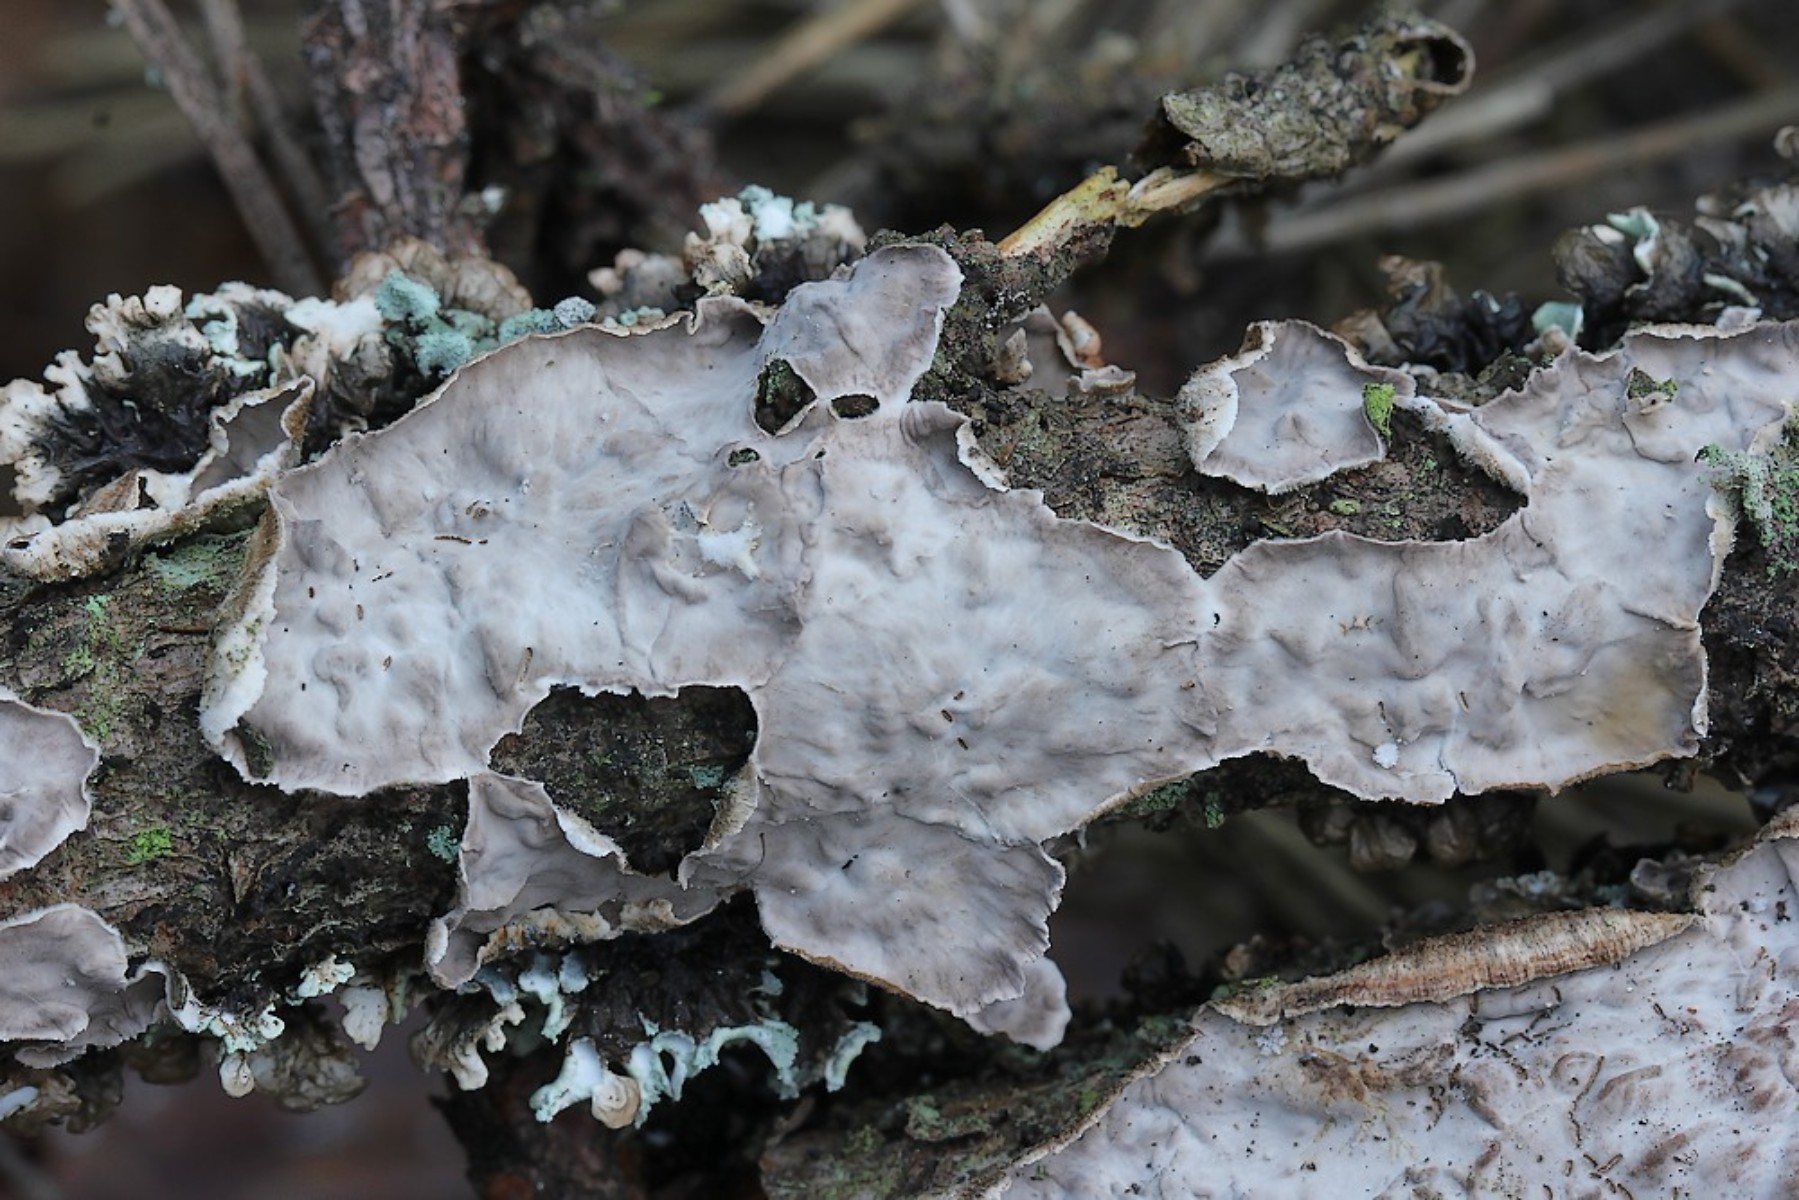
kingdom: Fungi
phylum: Basidiomycota
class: Agaricomycetes
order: Russulales
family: Stereaceae
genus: Stereum
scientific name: Stereum sanguinolentum
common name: blødende lædersvamp
